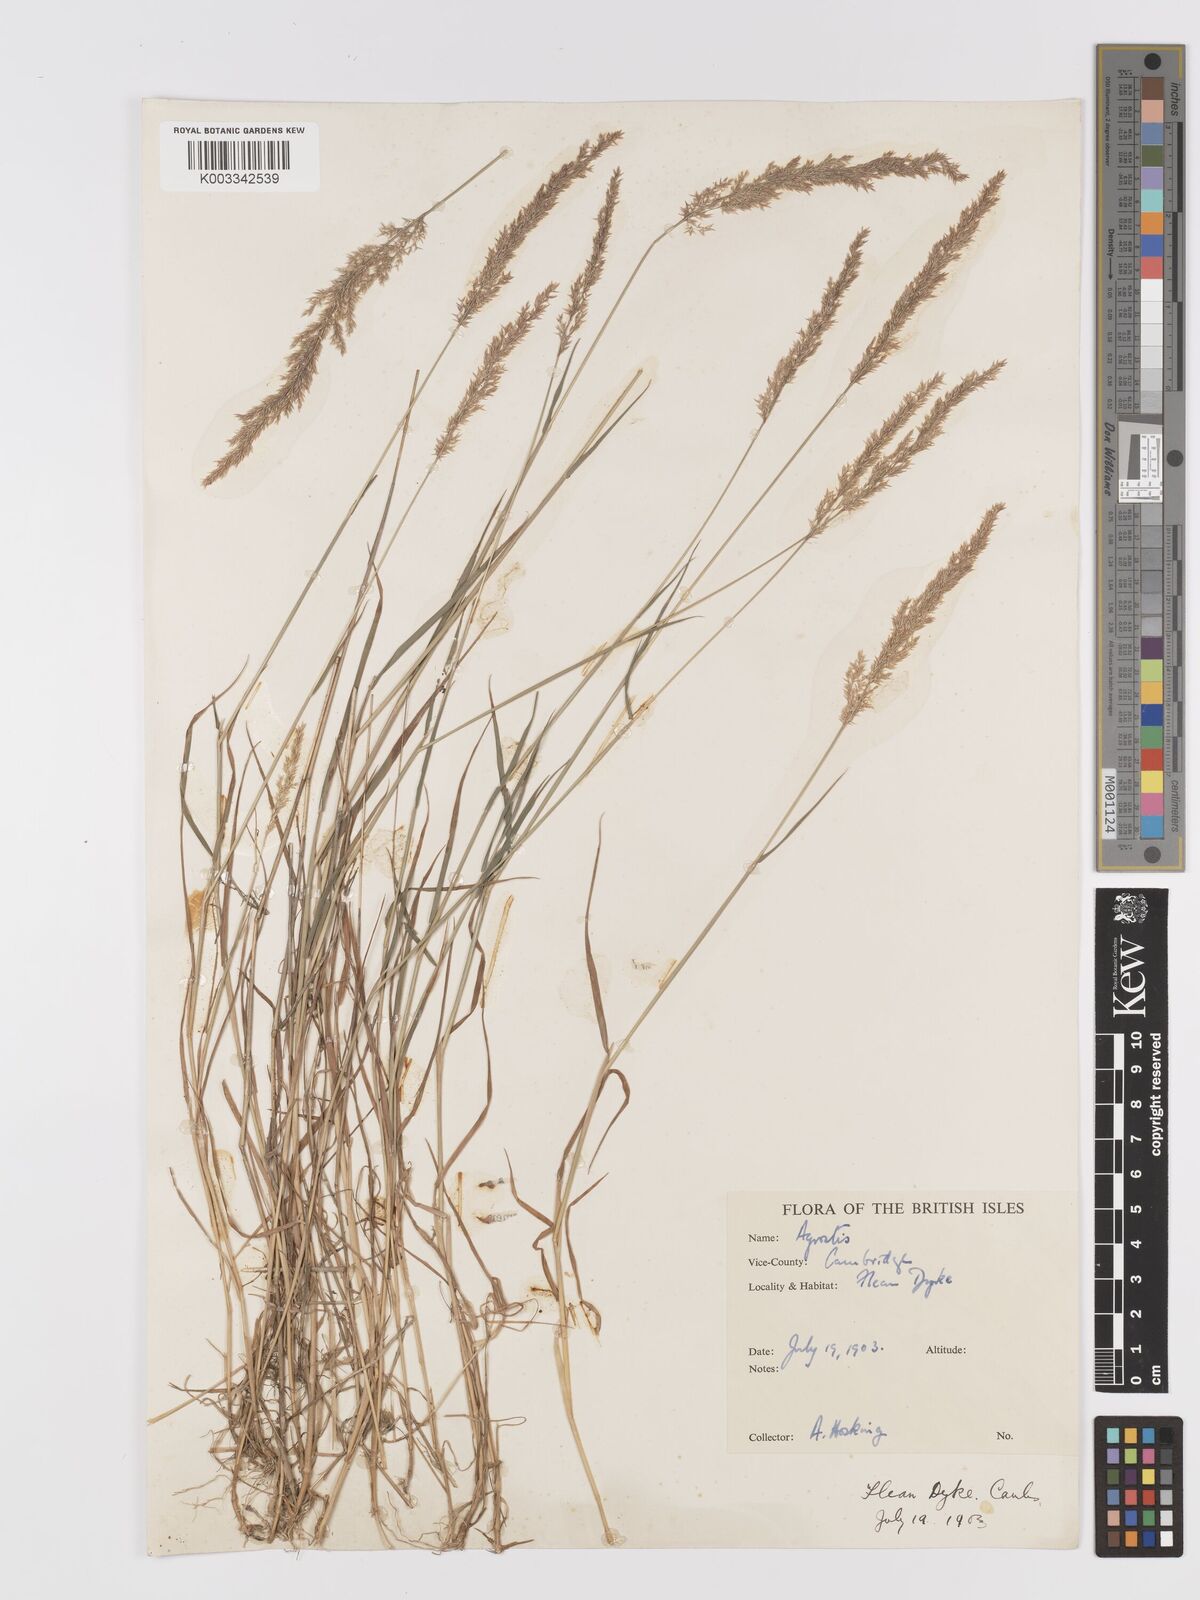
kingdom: Plantae
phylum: Tracheophyta
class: Liliopsida
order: Poales
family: Poaceae
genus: Agrostis
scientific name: Agrostis
